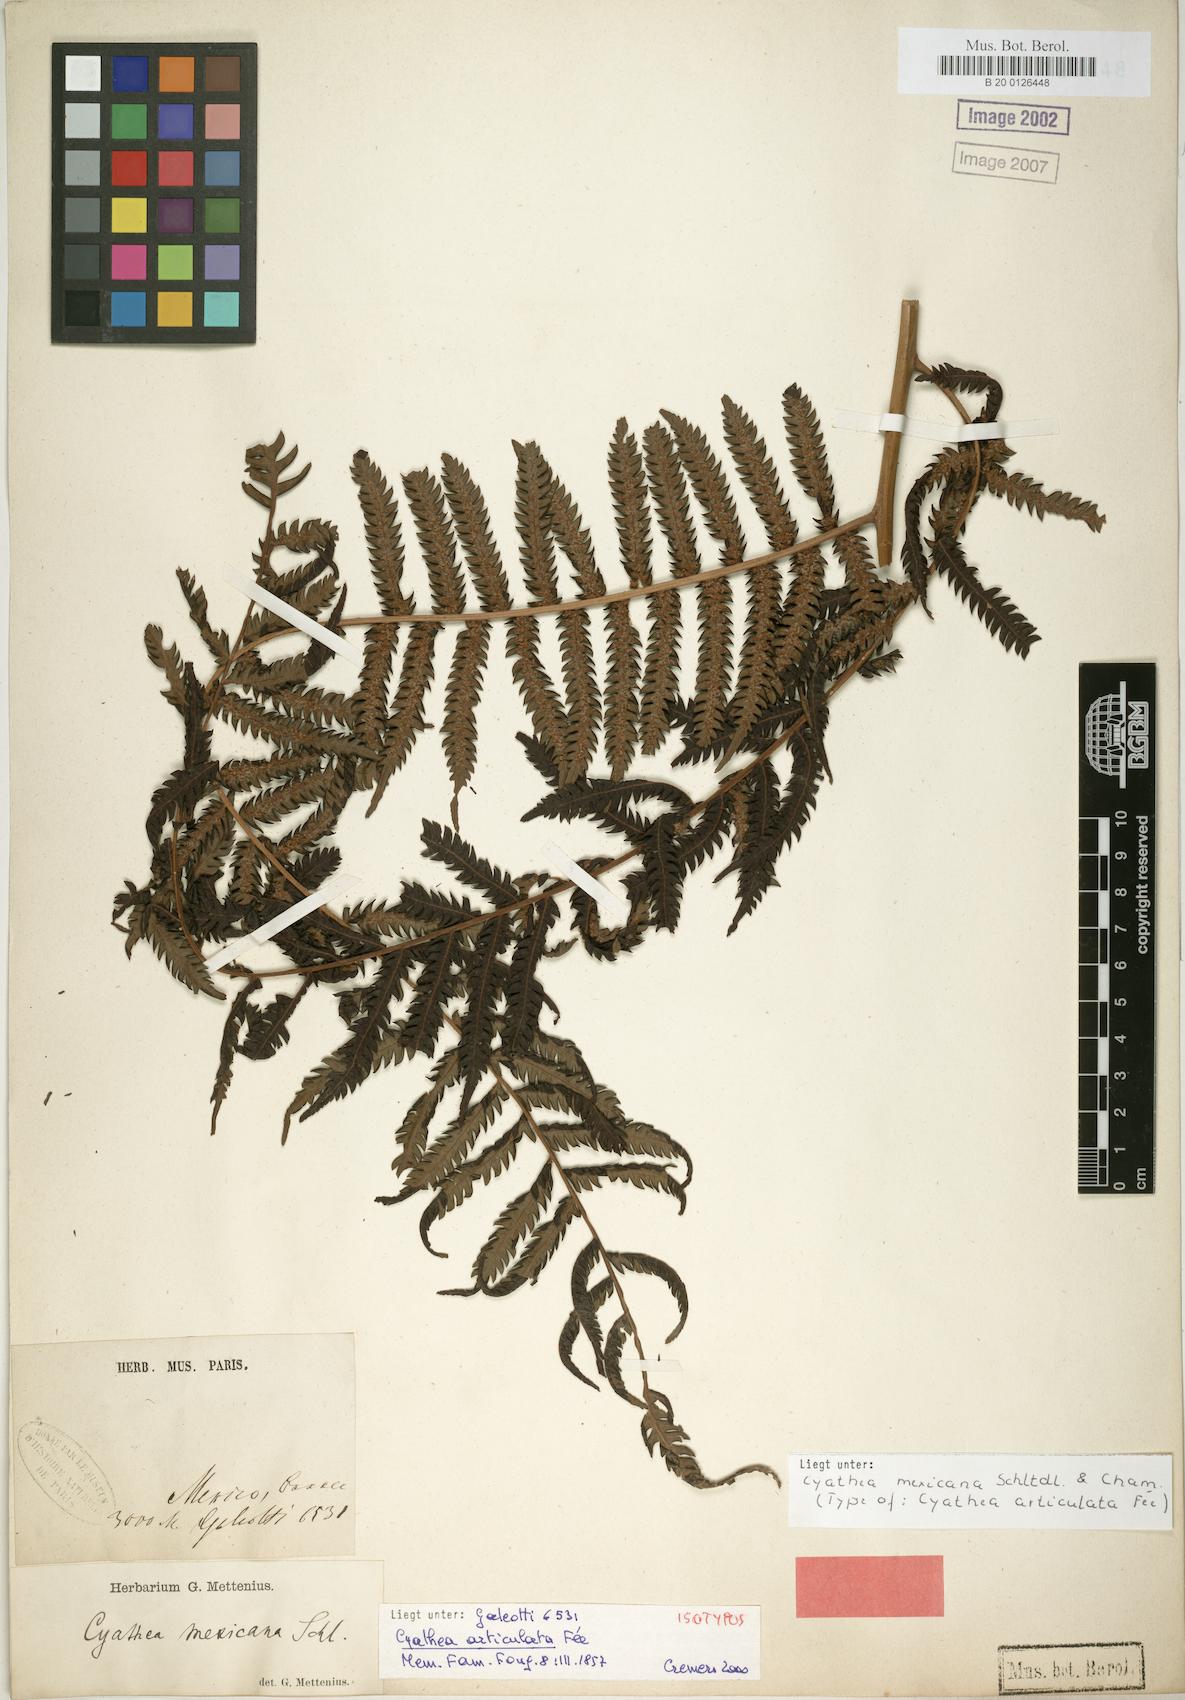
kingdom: Plantae
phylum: Tracheophyta
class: Polypodiopsida
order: Cyatheales
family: Cyatheaceae
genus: Alsophila
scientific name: Alsophila firma
